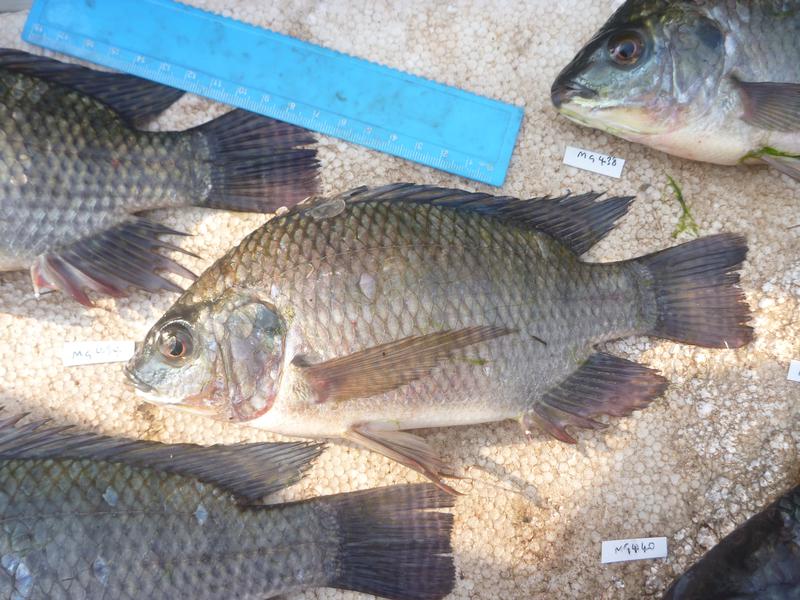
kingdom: Animalia
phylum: Chordata
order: Perciformes
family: Cichlidae
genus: Oreochromis
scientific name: Oreochromis niloticus
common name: Nile tilapia
